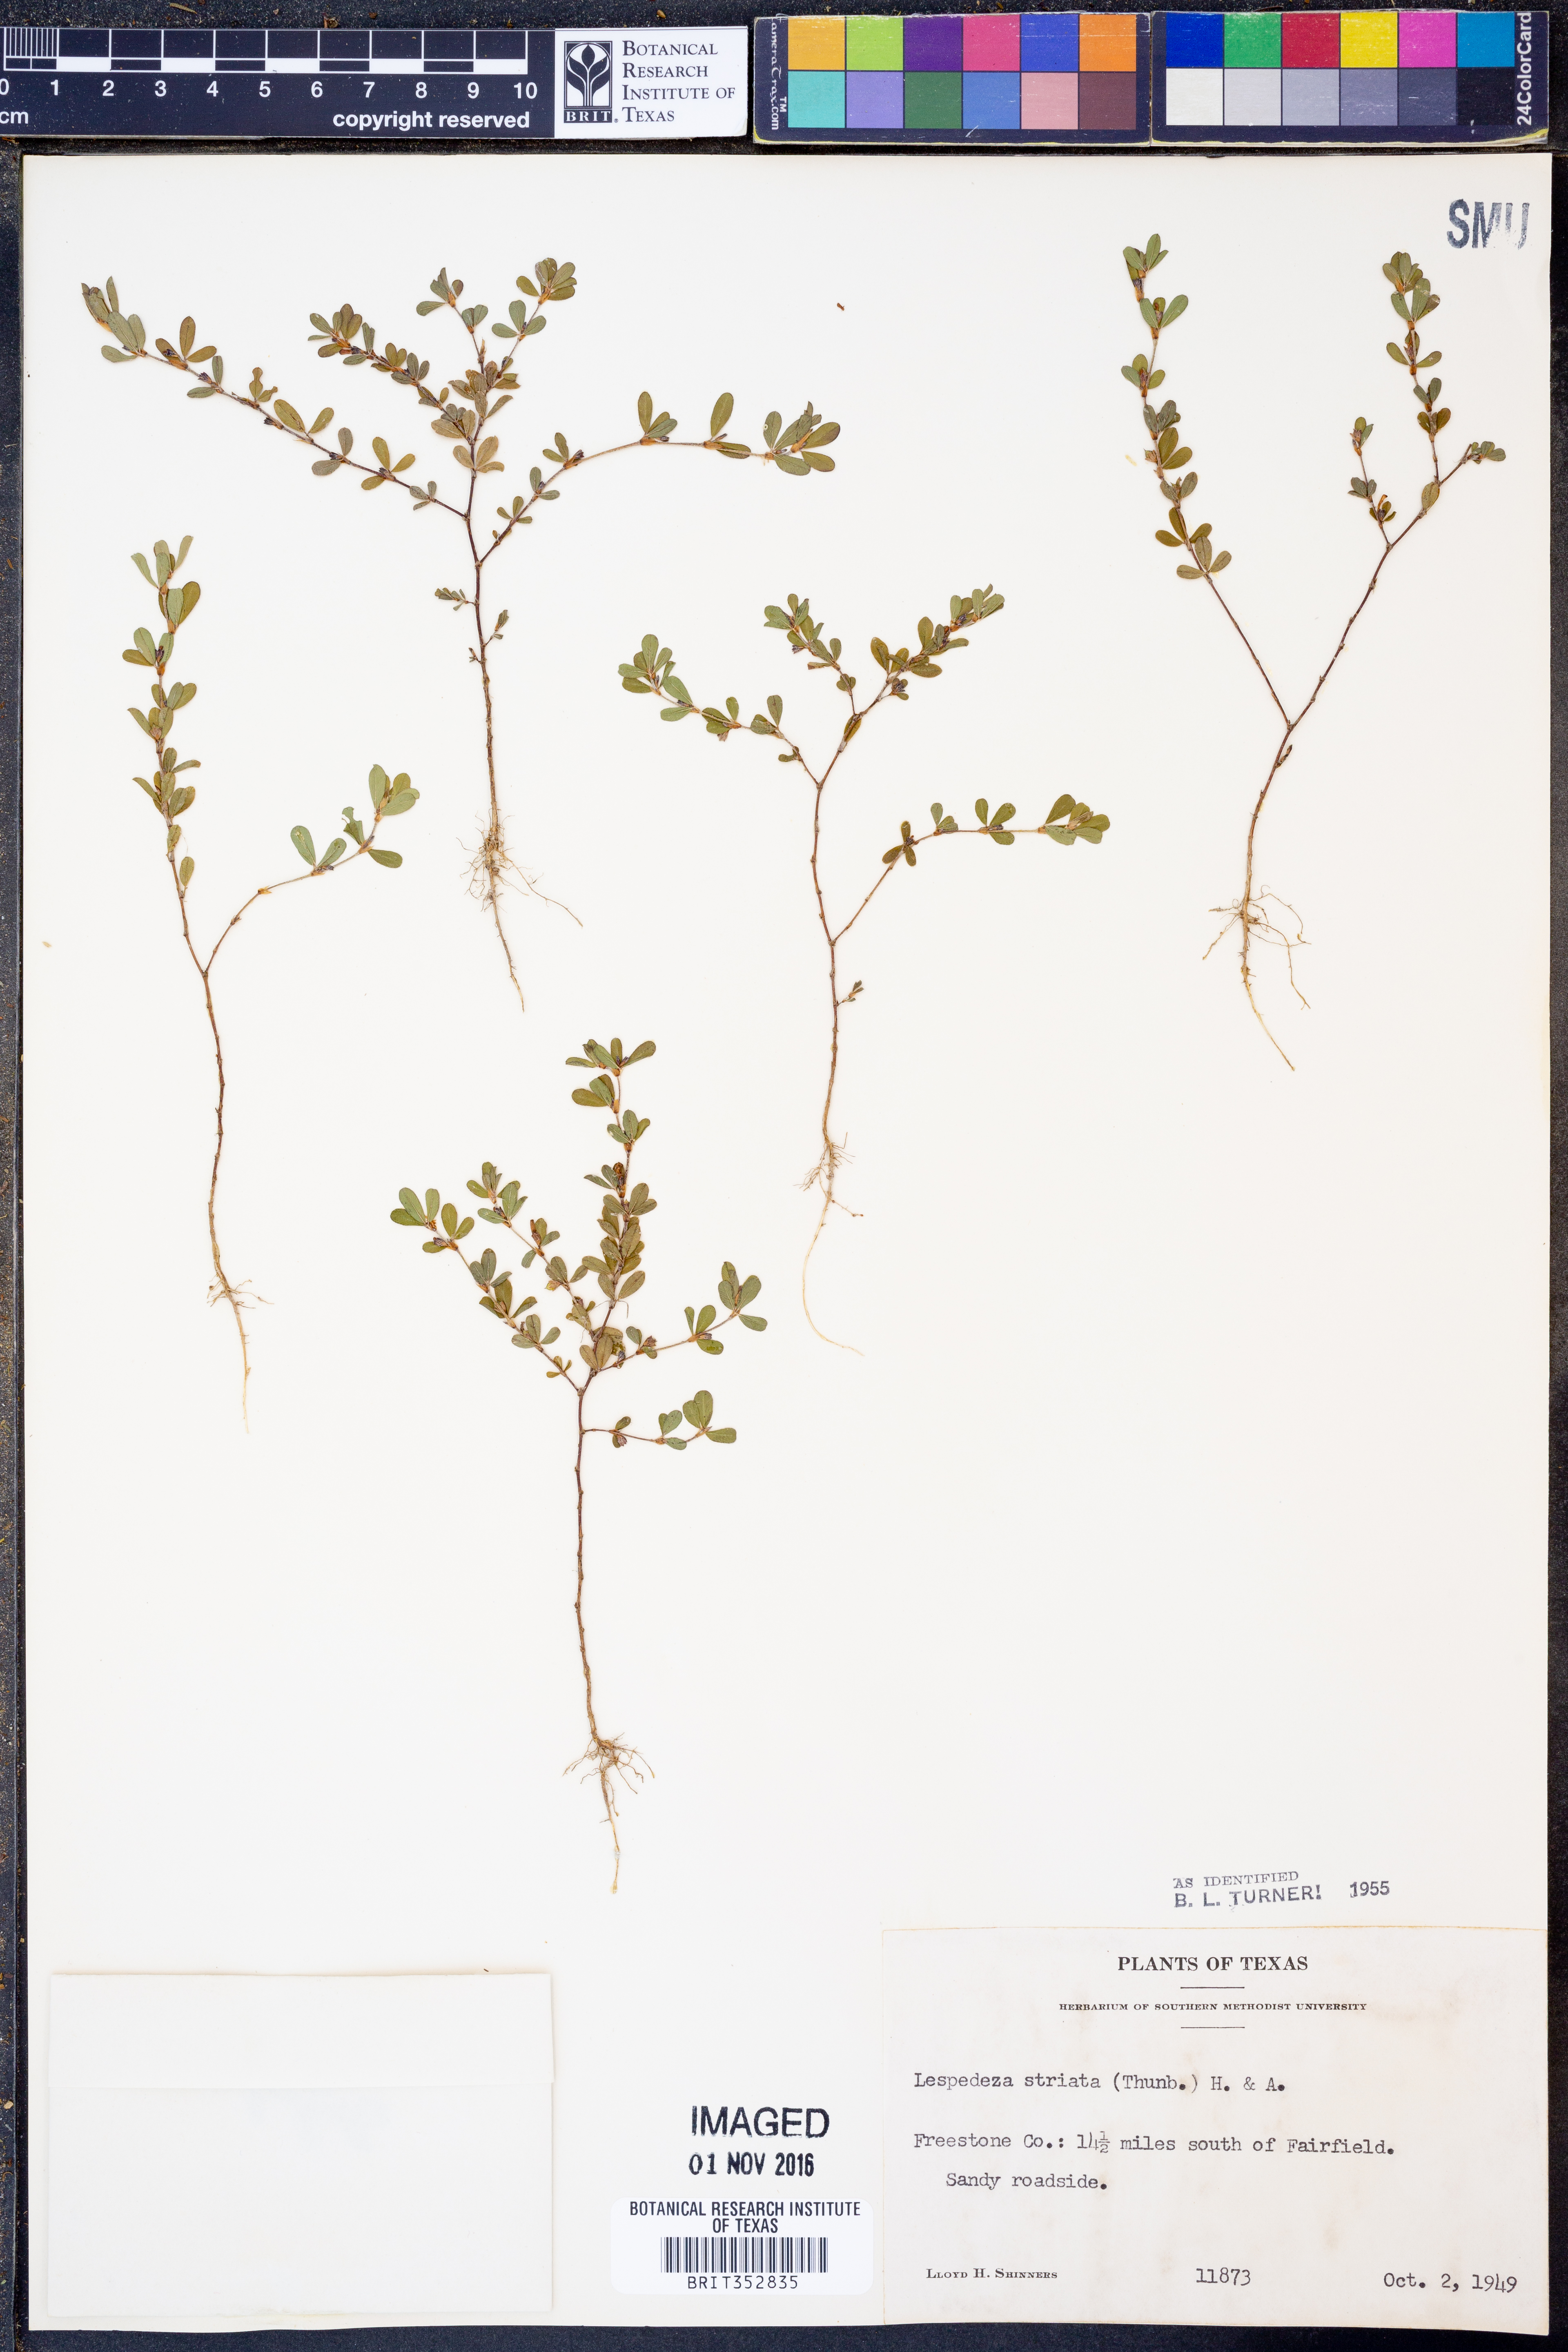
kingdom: Plantae
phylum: Tracheophyta
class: Magnoliopsida
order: Fabales
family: Fabaceae
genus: Kummerowia
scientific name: Kummerowia striata
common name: Japanese clover
